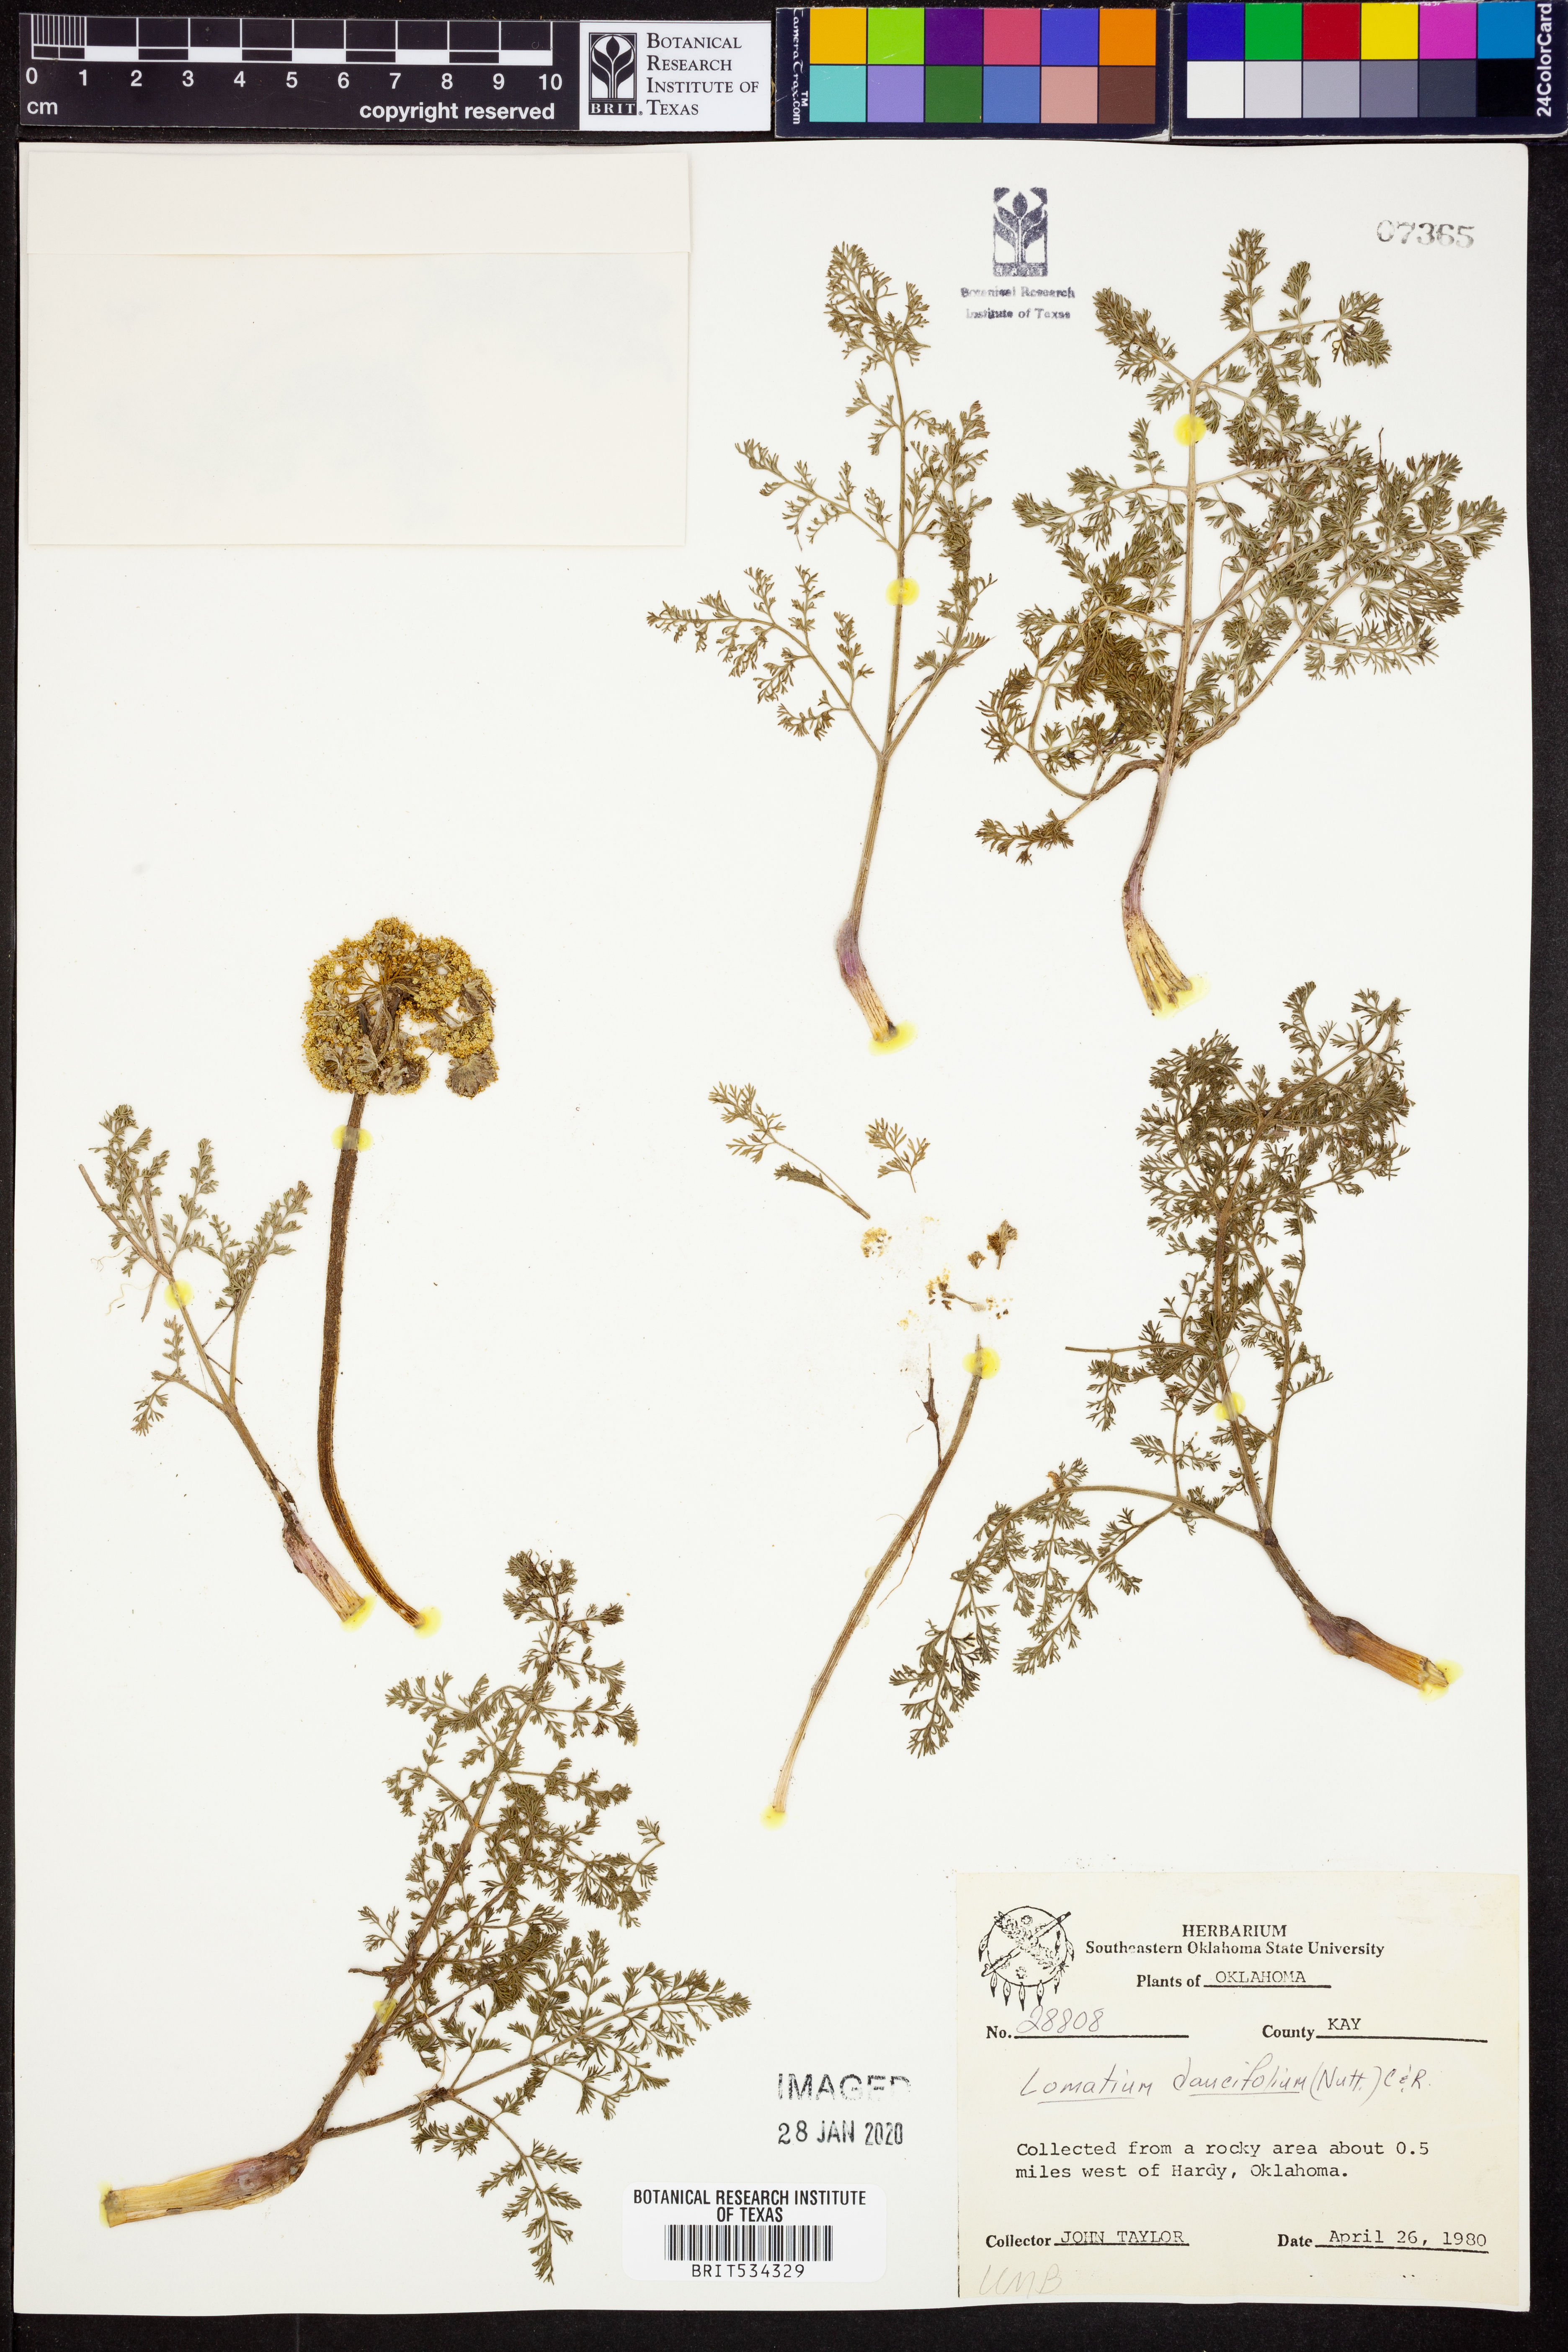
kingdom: Plantae
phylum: Tracheophyta
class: Magnoliopsida
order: Apiales
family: Apiaceae
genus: Lomatium
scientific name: Lomatium foeniculaceum
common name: Desert-parsley
